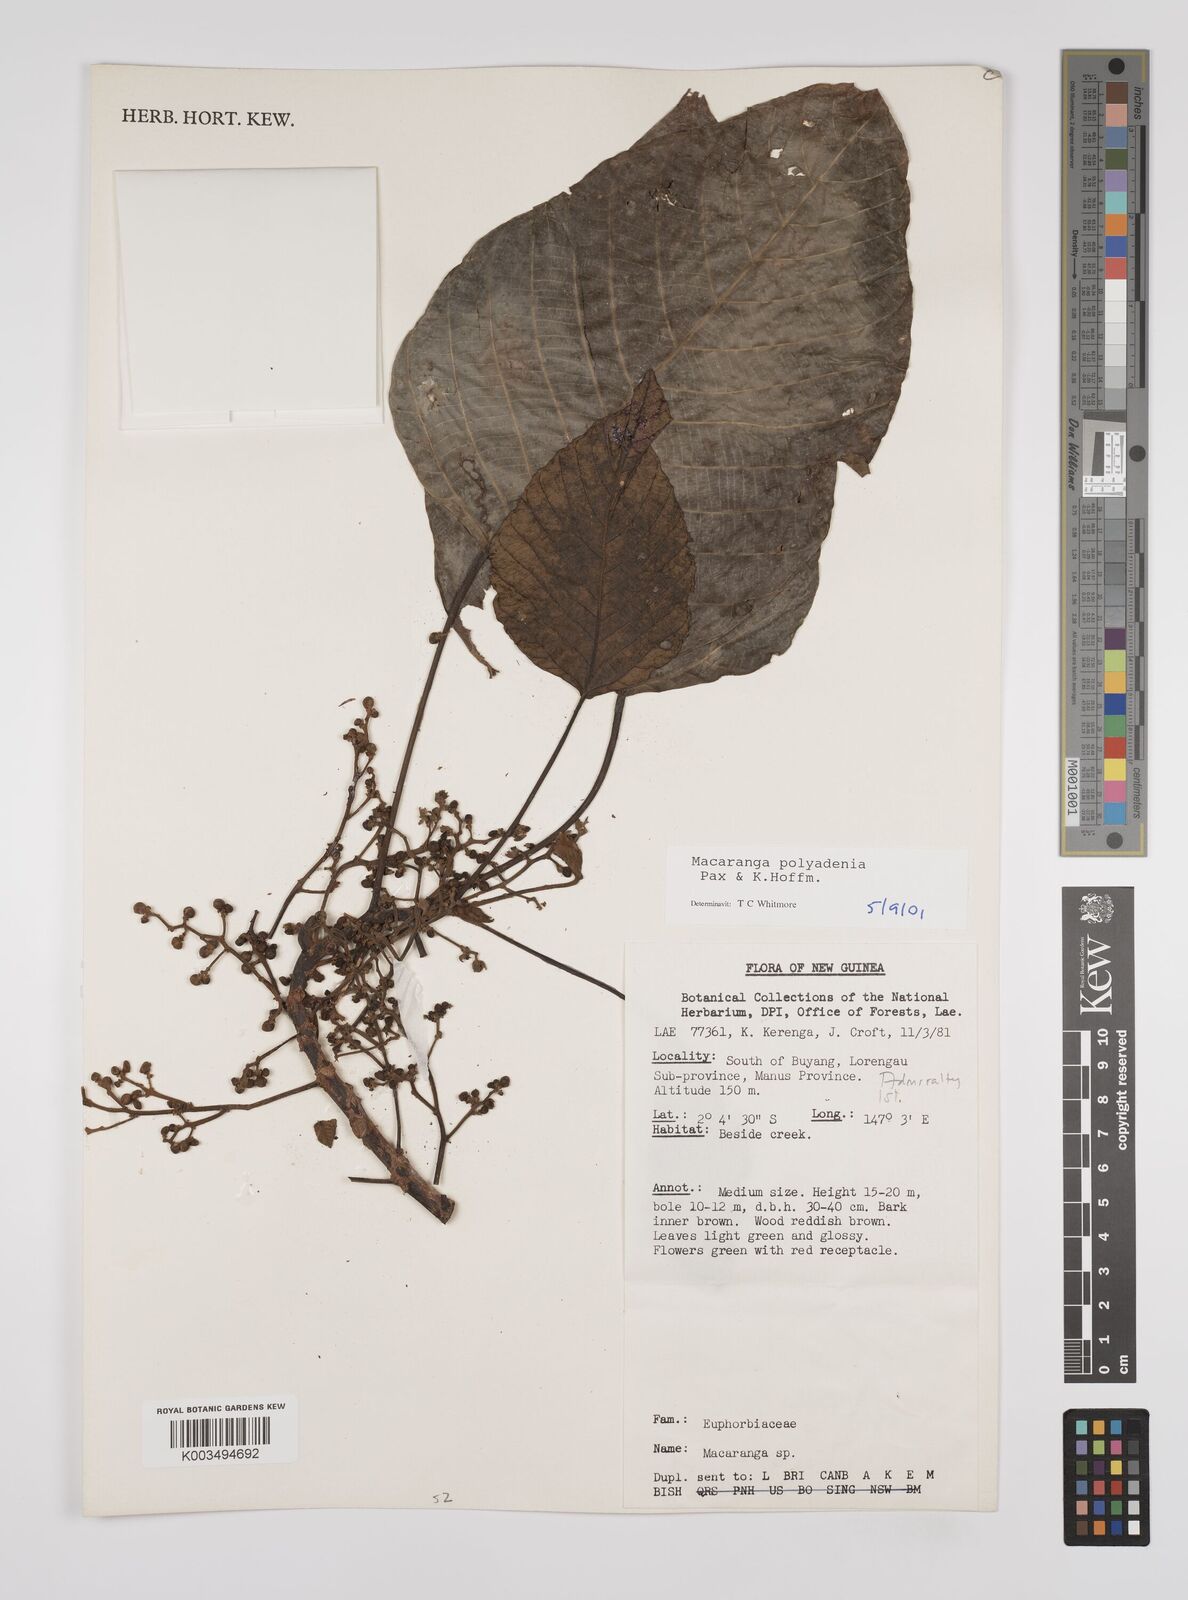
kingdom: Plantae
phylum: Tracheophyta
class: Magnoliopsida
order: Malpighiales
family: Euphorbiaceae
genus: Macaranga
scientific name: Macaranga polyadenia
